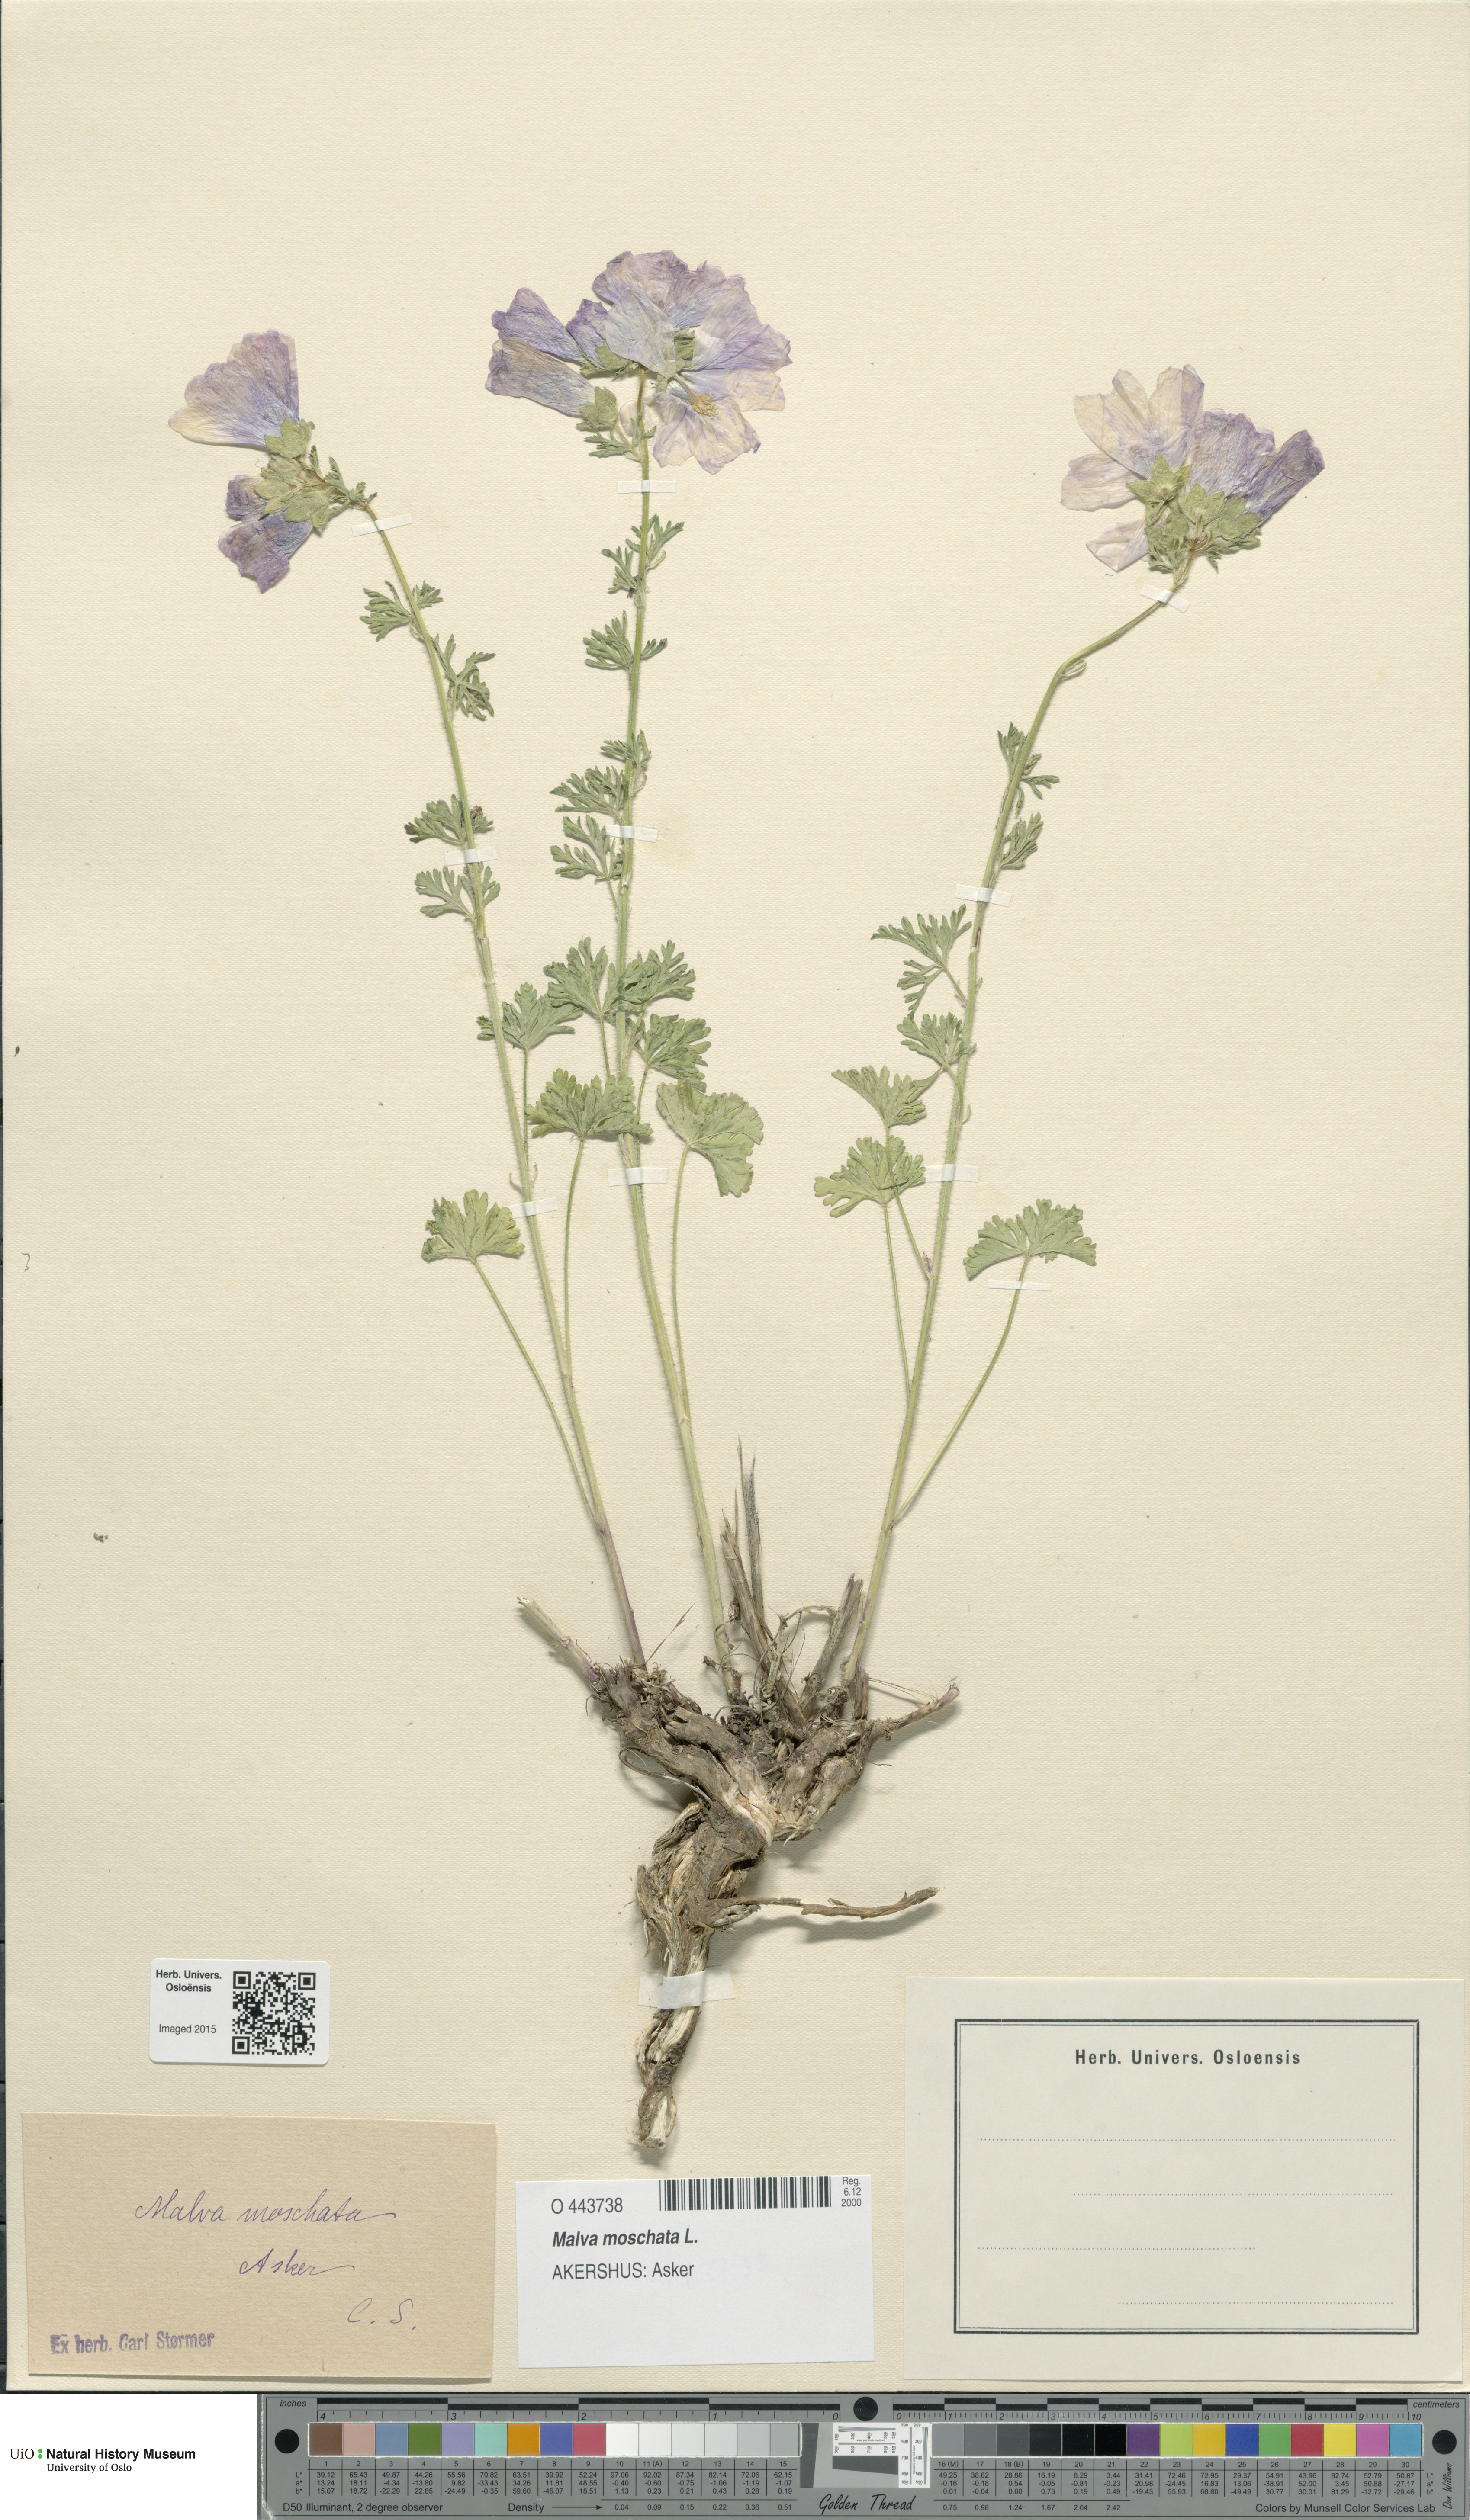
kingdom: Plantae
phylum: Tracheophyta
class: Magnoliopsida
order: Malvales
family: Malvaceae
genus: Malva
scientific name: Malva moschata
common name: Musk mallow
